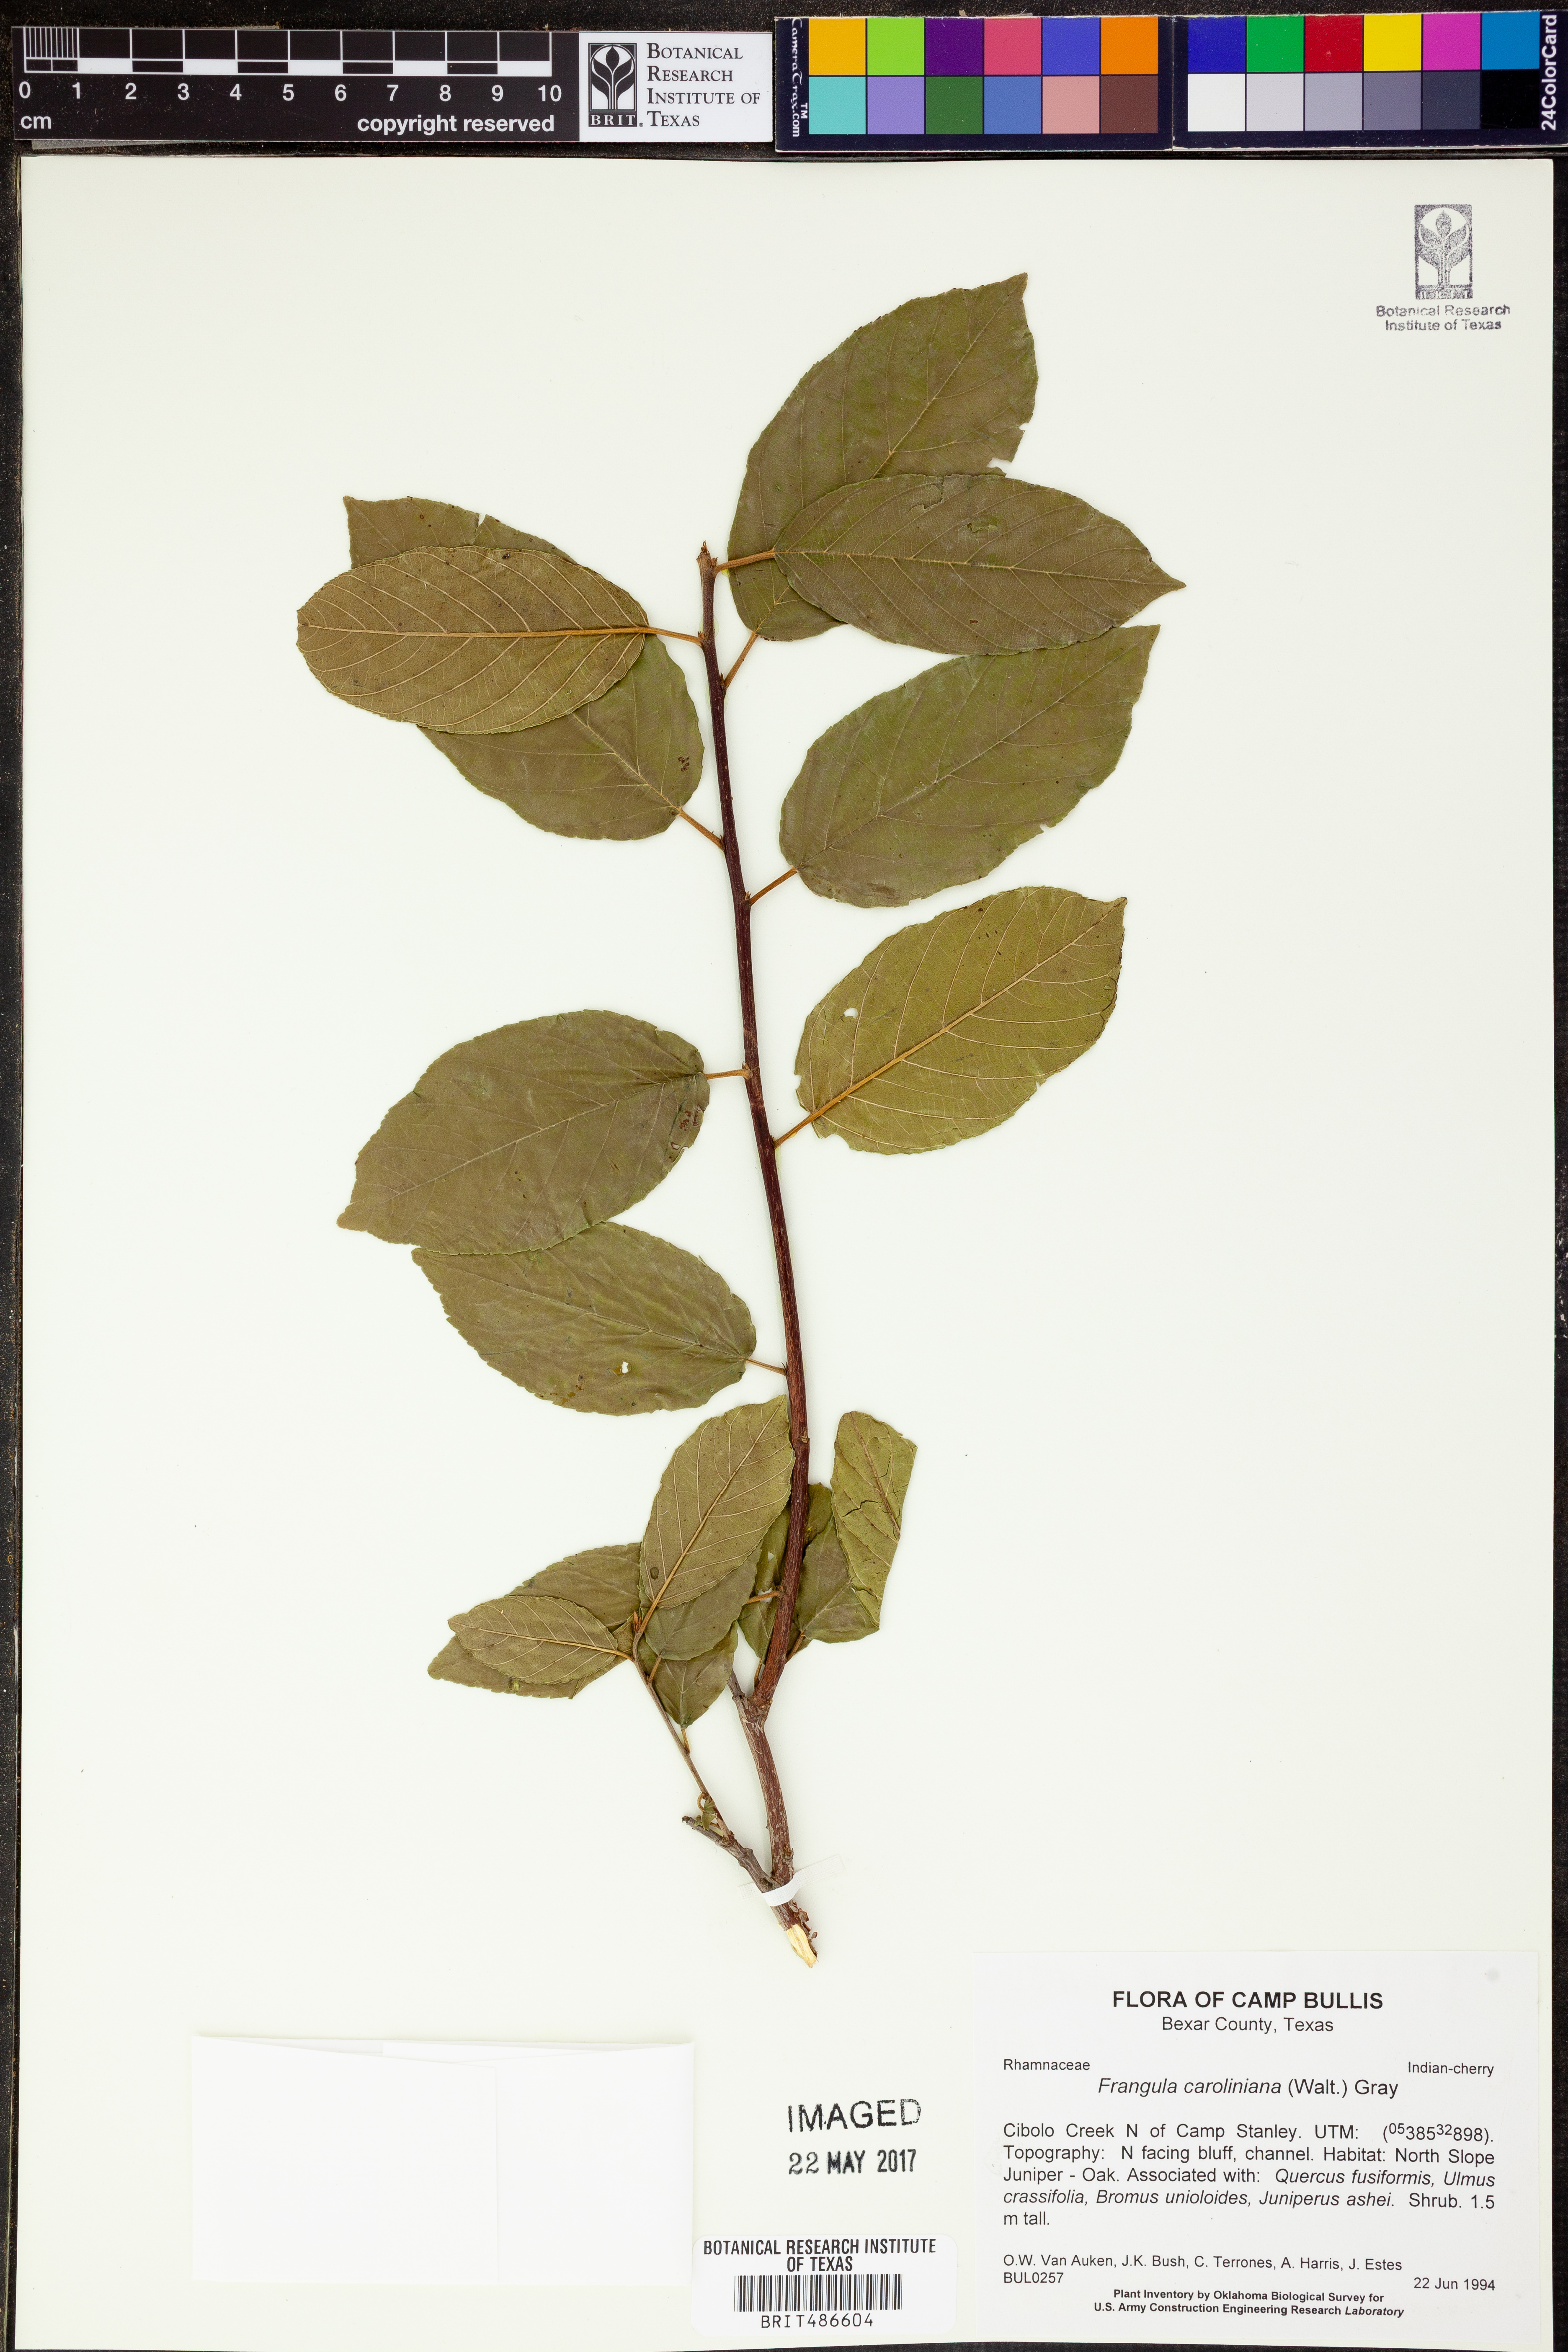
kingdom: Plantae
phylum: Tracheophyta
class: Magnoliopsida
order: Rosales
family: Rhamnaceae
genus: Frangula
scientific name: Frangula caroliniana
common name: Carolina buckthorn
